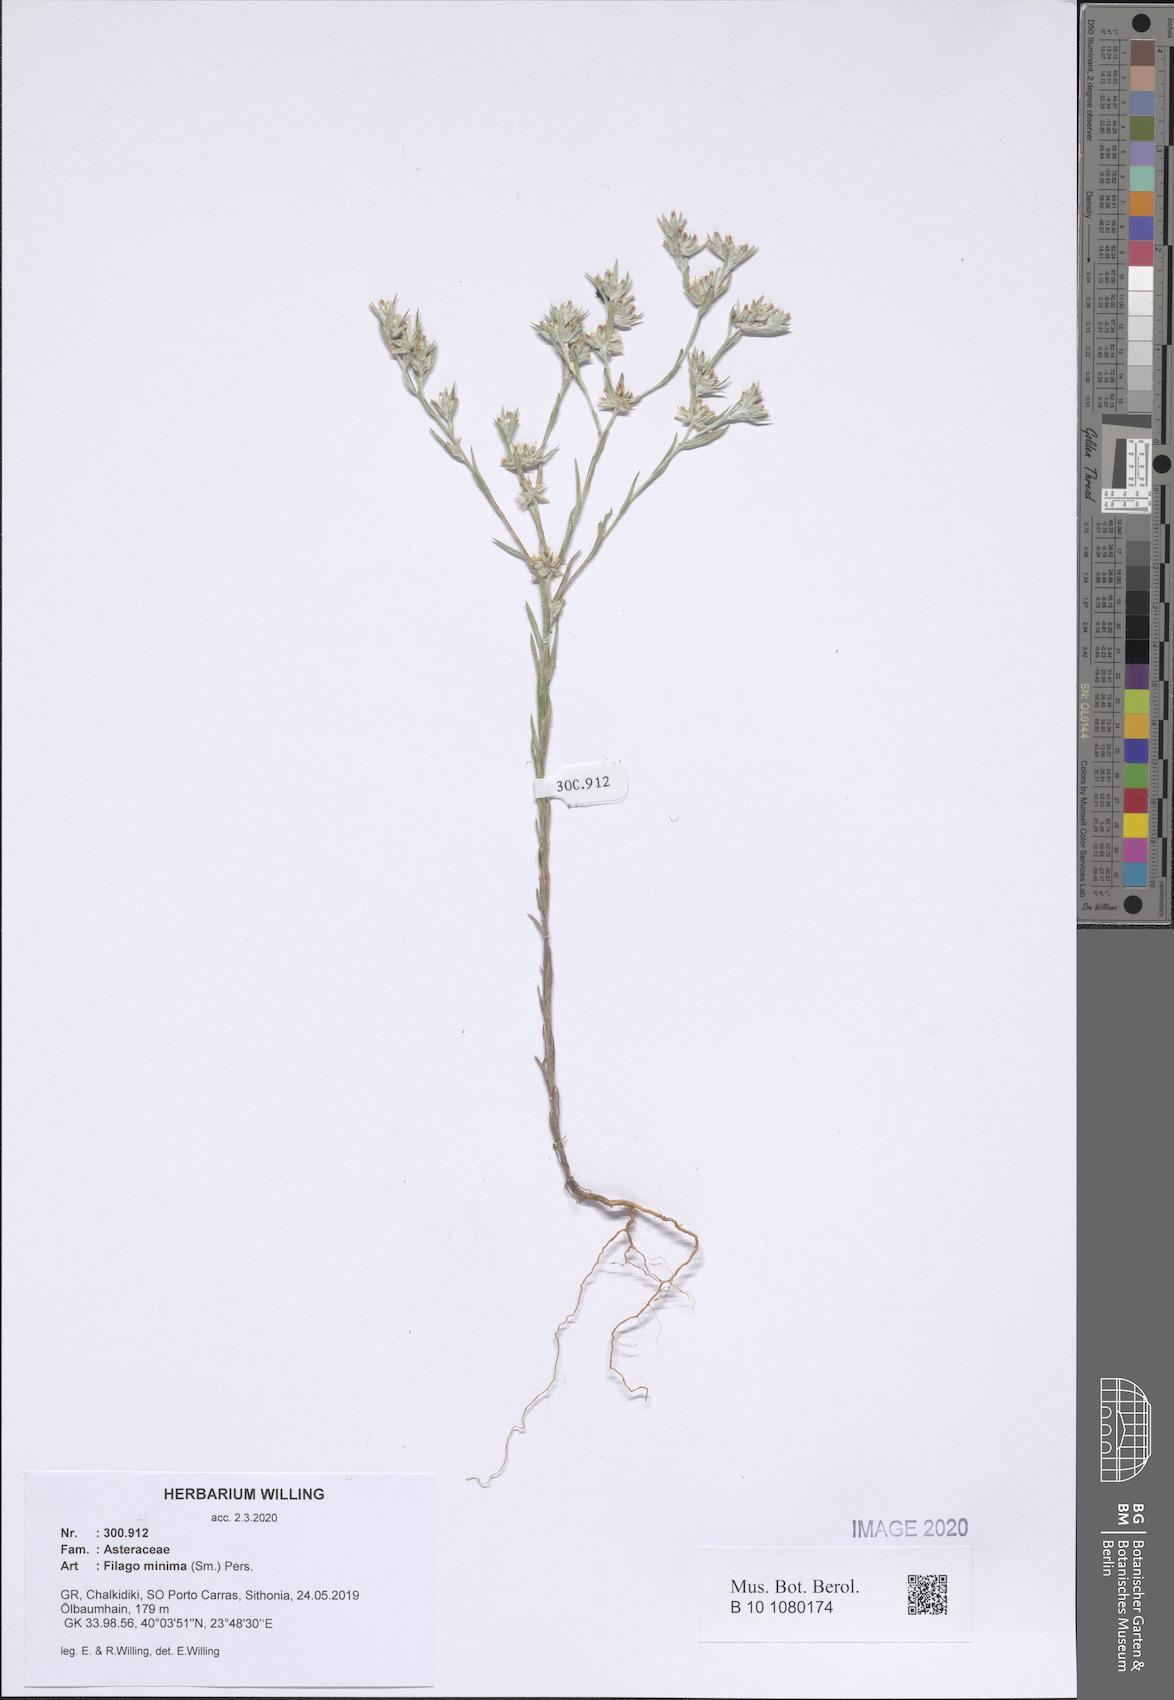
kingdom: Plantae
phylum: Tracheophyta
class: Magnoliopsida
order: Asterales
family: Asteraceae
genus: Logfia
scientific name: Logfia minima
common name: Little cottonrose
